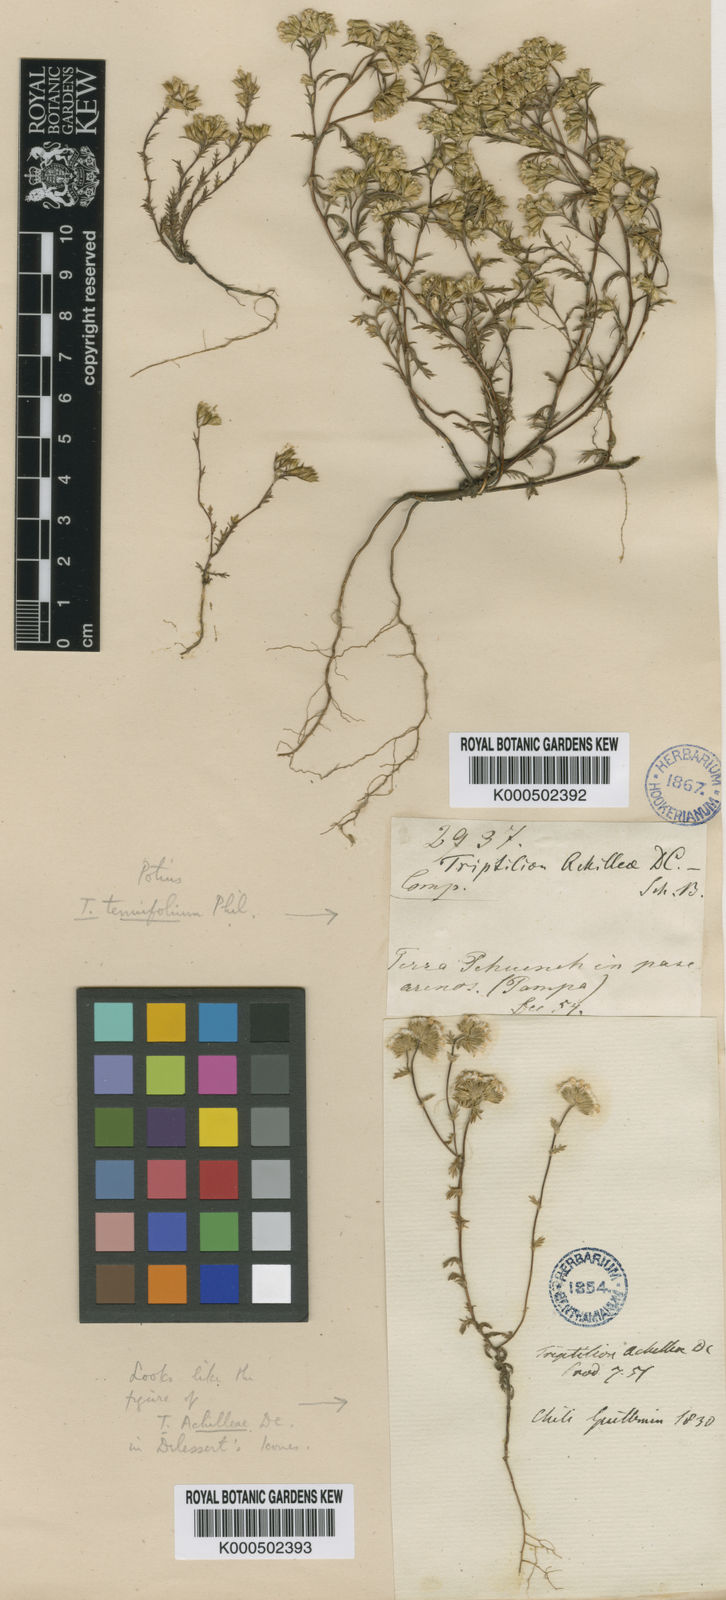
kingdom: Plantae
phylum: Tracheophyta
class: Magnoliopsida
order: Asterales
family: Asteraceae
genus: Triptilion
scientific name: Triptilion achilleae
